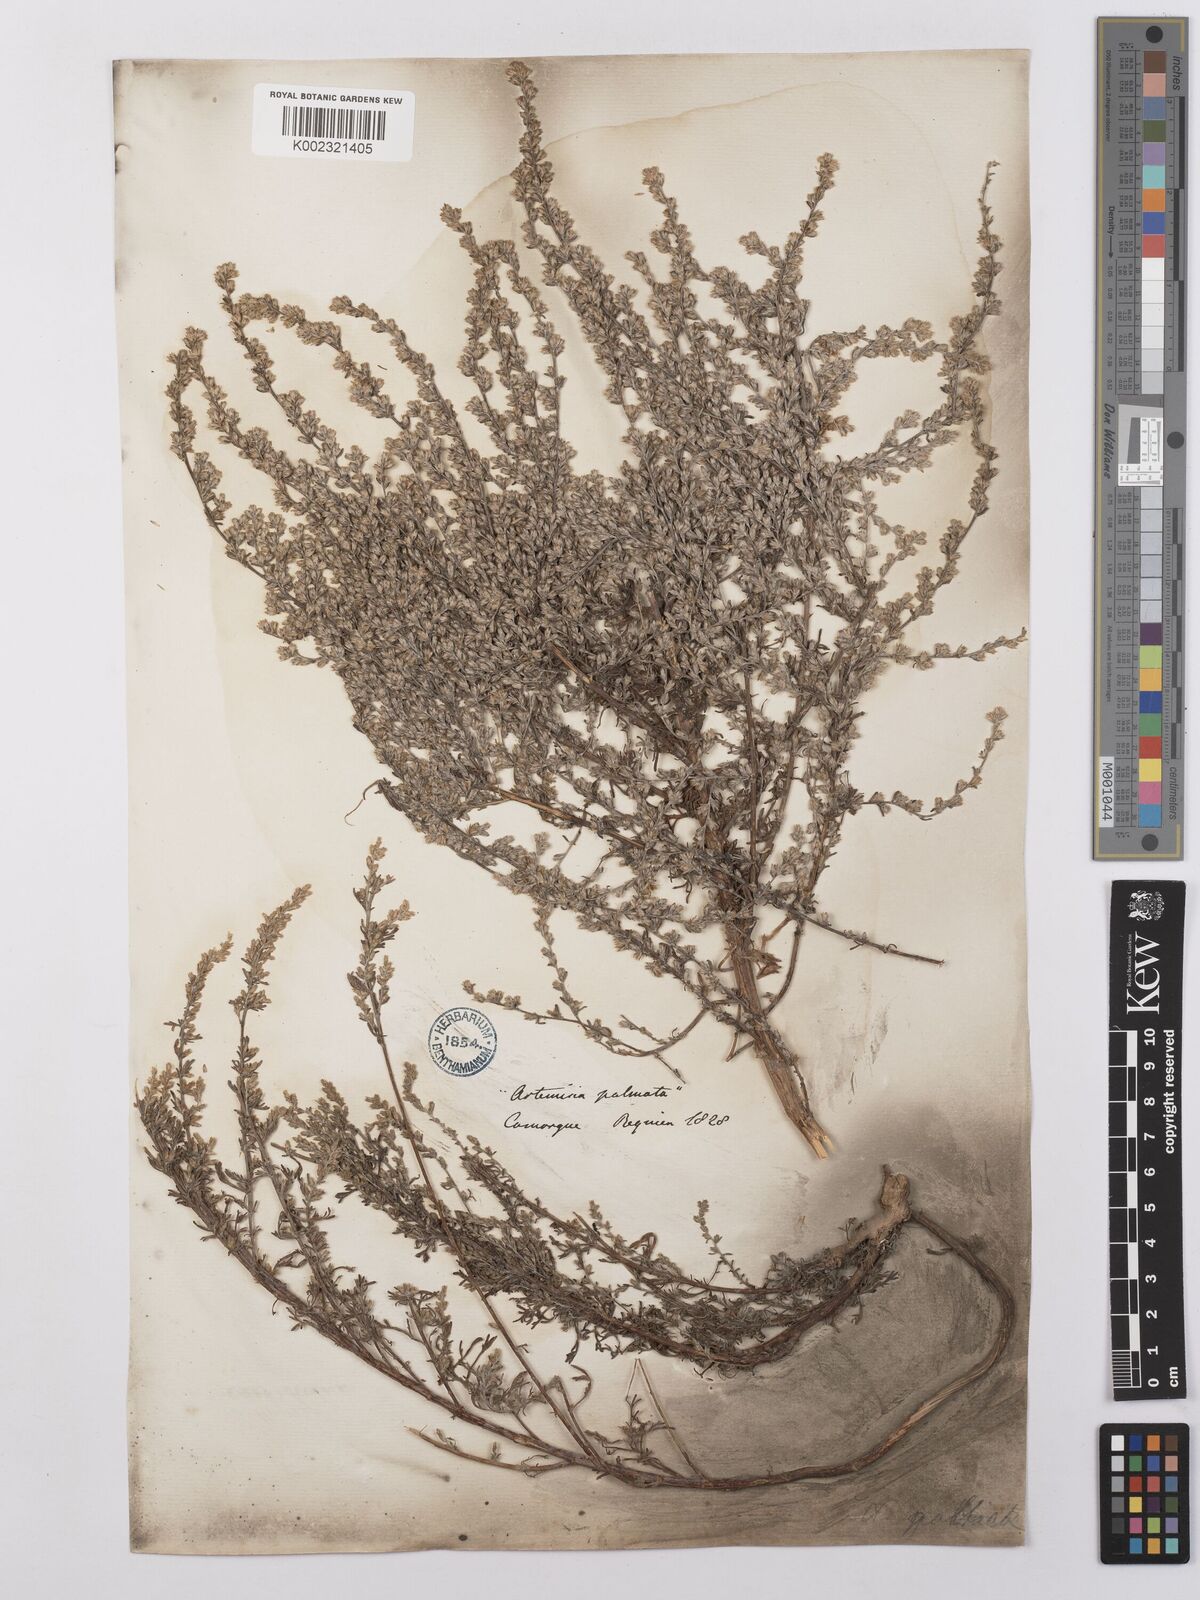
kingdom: Plantae
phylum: Tracheophyta
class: Magnoliopsida
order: Asterales
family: Asteraceae
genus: Artemisia
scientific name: Artemisia caerulescens
